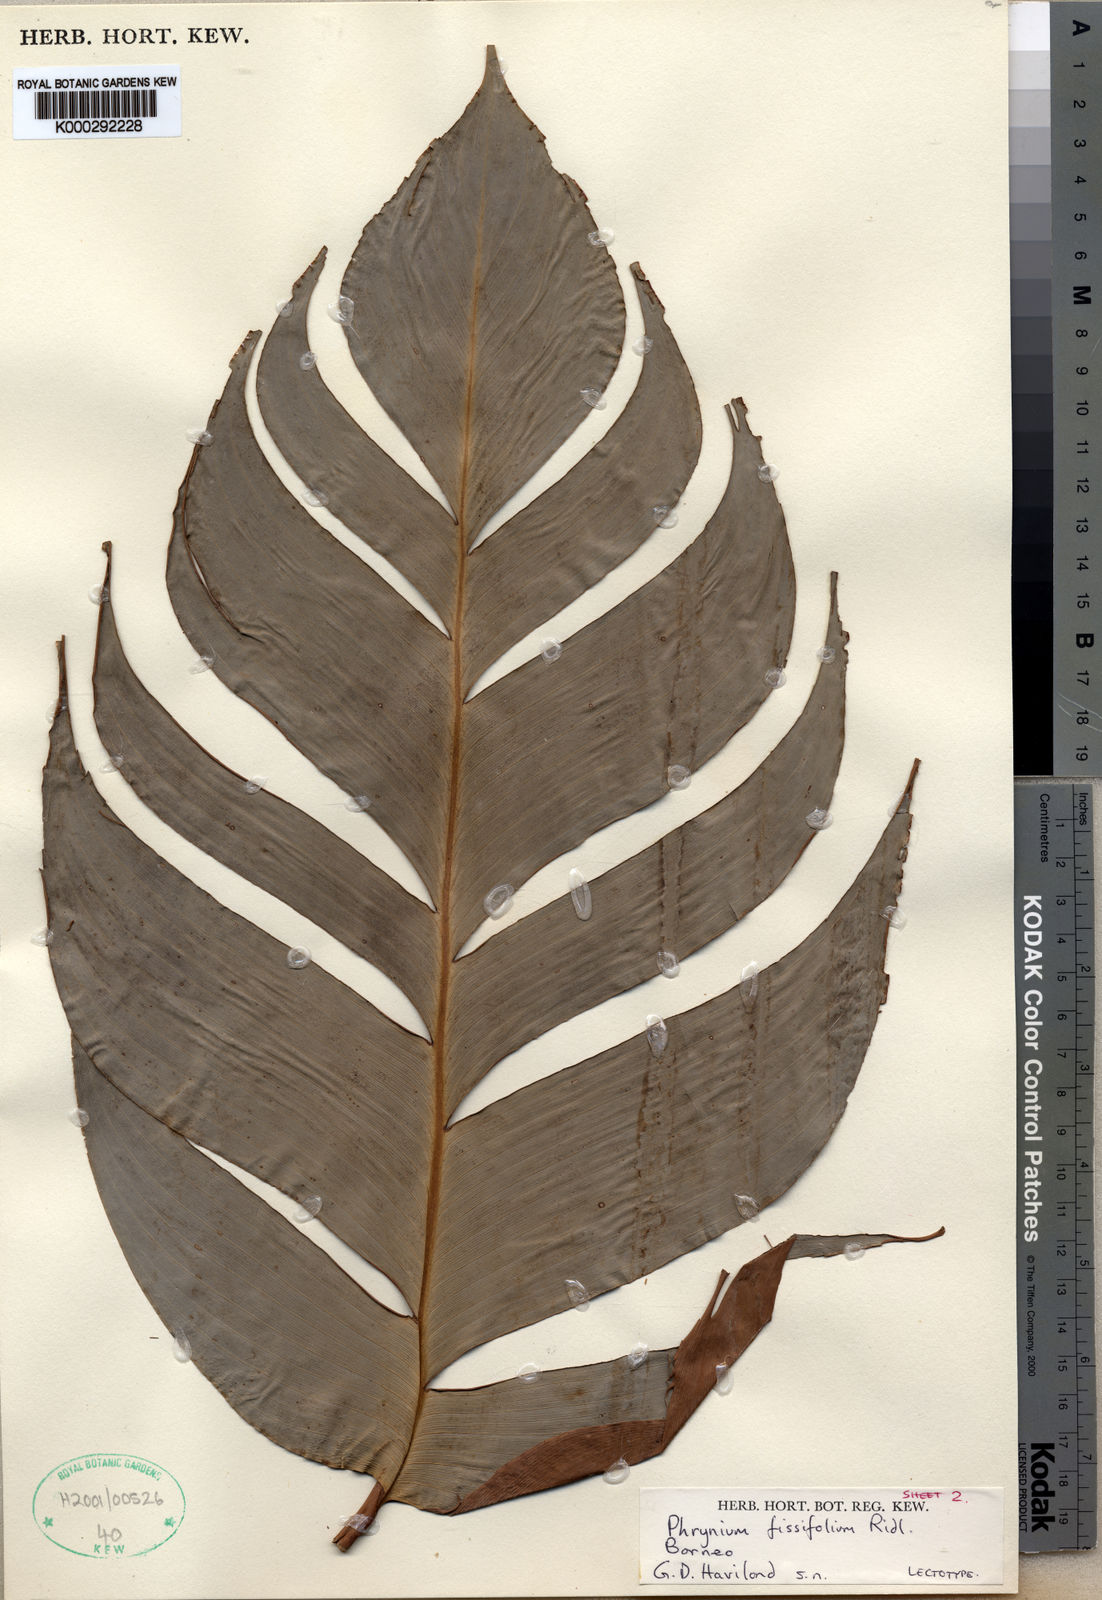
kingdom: Plantae
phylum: Tracheophyta
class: Liliopsida
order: Zingiberales
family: Marantaceae
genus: Phrynium
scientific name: Phrynium fissifolium
